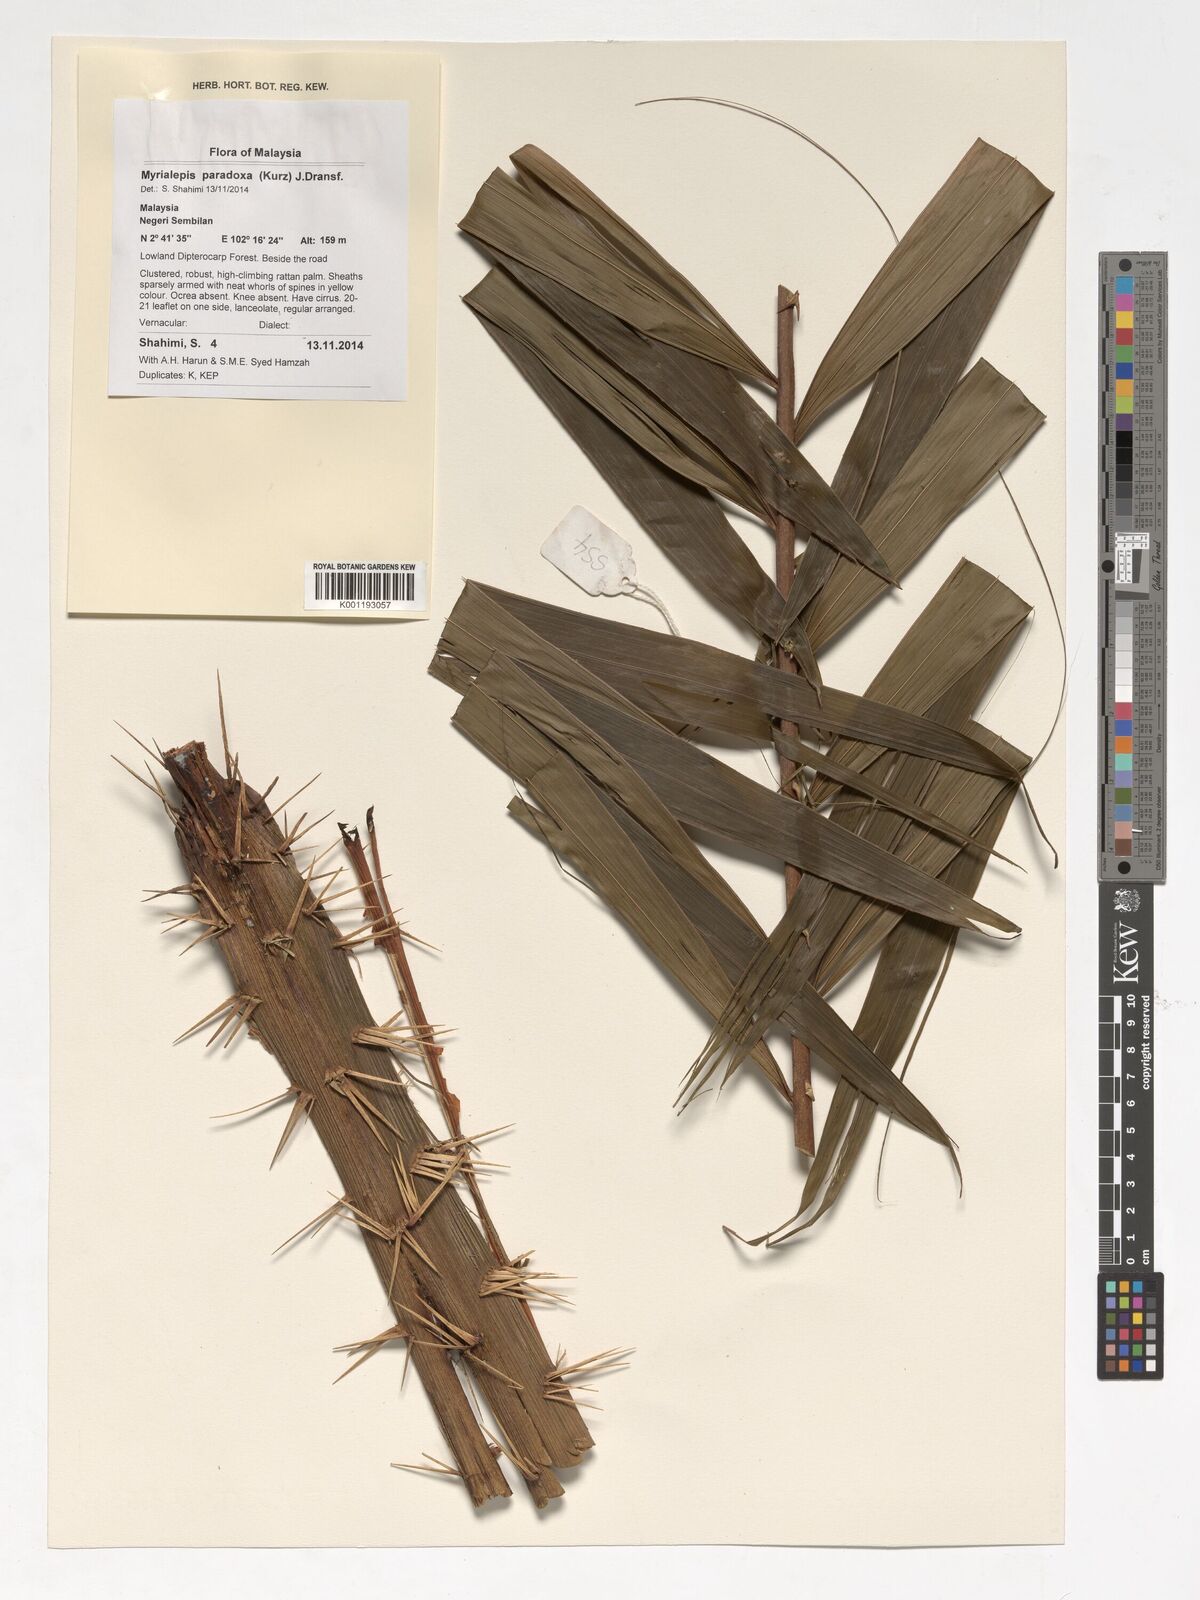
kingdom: Plantae
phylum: Tracheophyta
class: Liliopsida
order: Arecales
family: Arecaceae
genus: Myrialepis
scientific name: Myrialepis paradoxa
